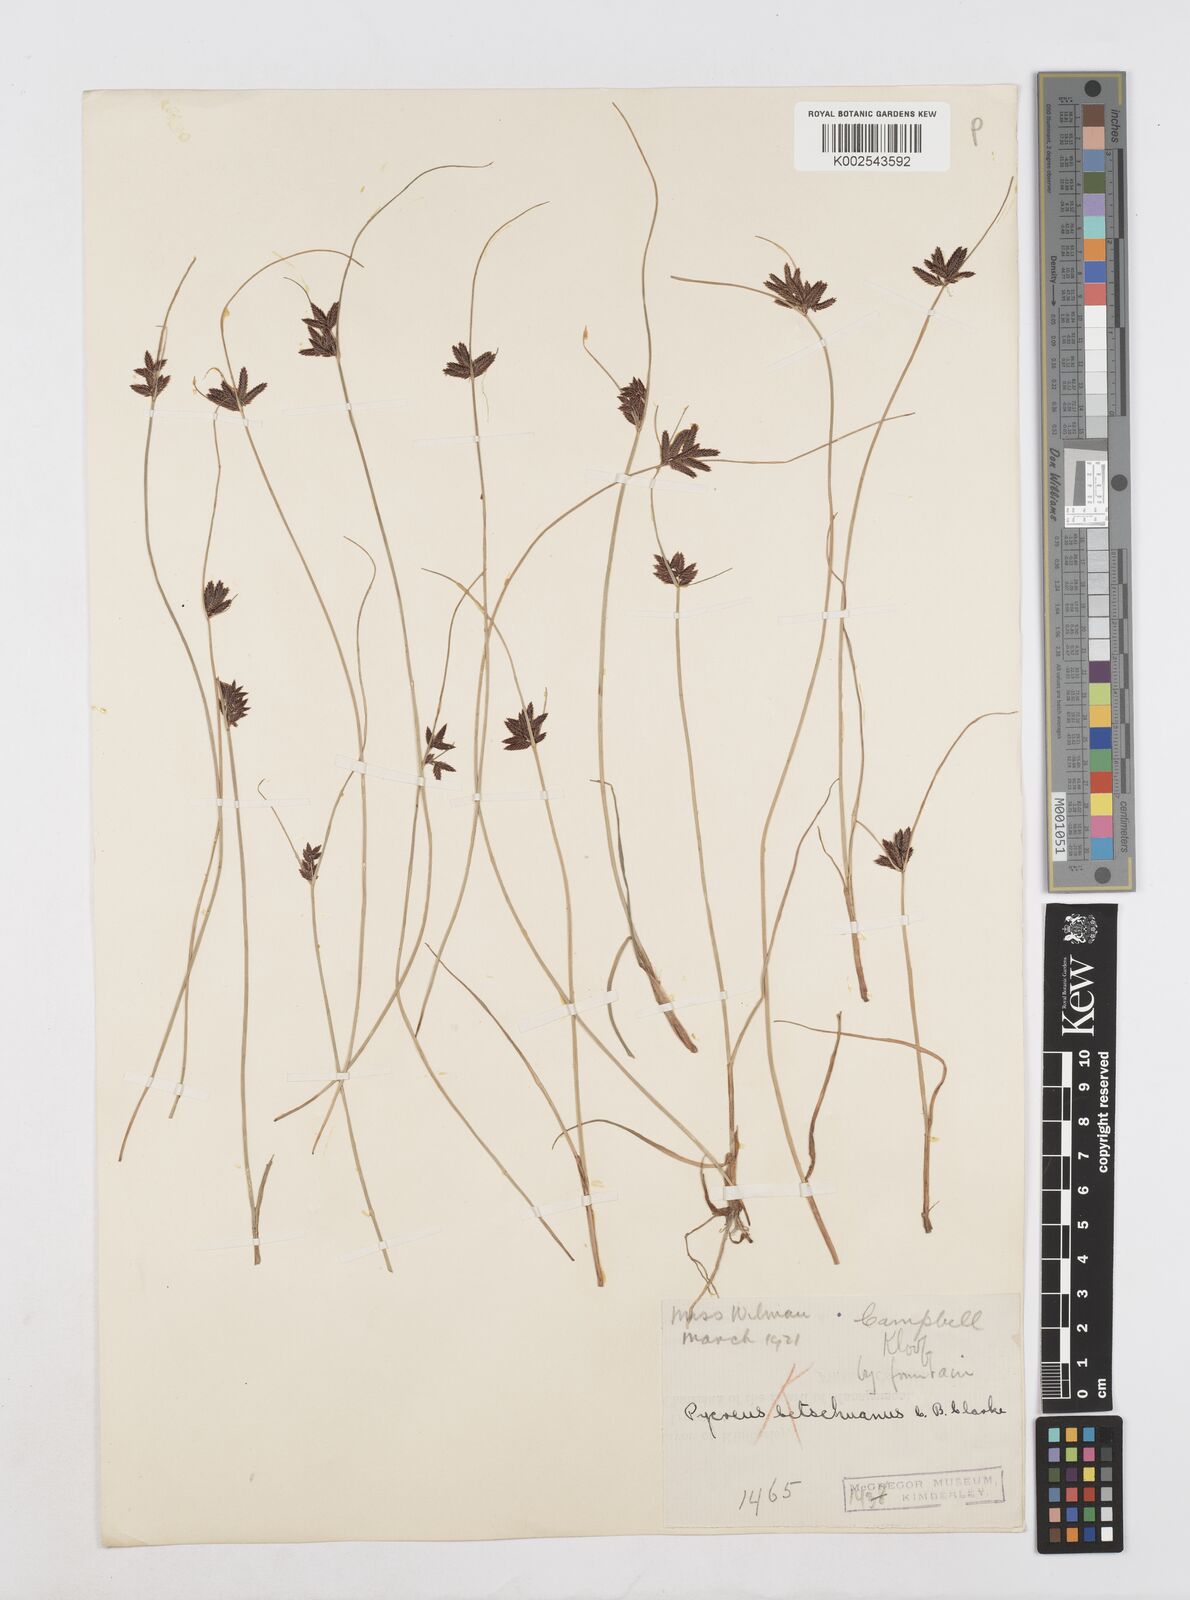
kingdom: Plantae
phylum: Tracheophyta
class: Liliopsida
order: Poales
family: Cyperaceae
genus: Cyperus
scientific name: Cyperus aethiops
